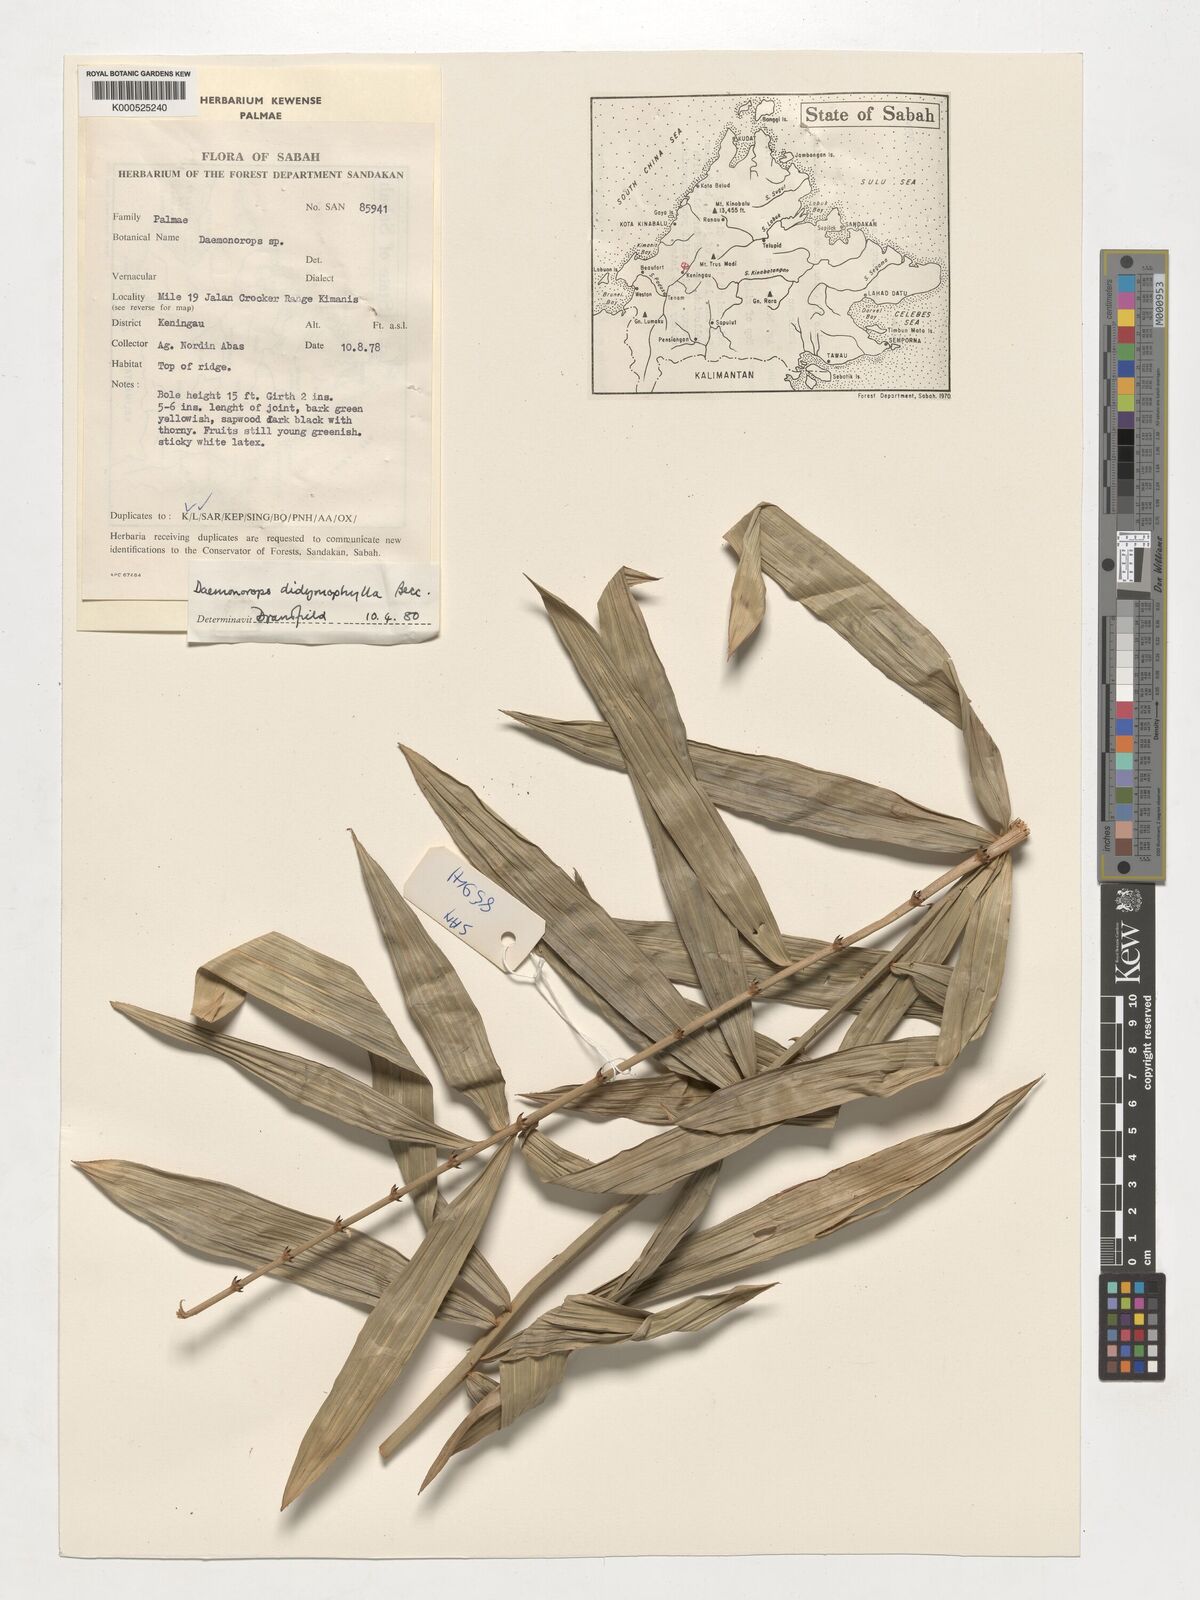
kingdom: Plantae
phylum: Tracheophyta
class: Liliopsida
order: Arecales
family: Arecaceae
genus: Calamus
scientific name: Calamus gracilipes
